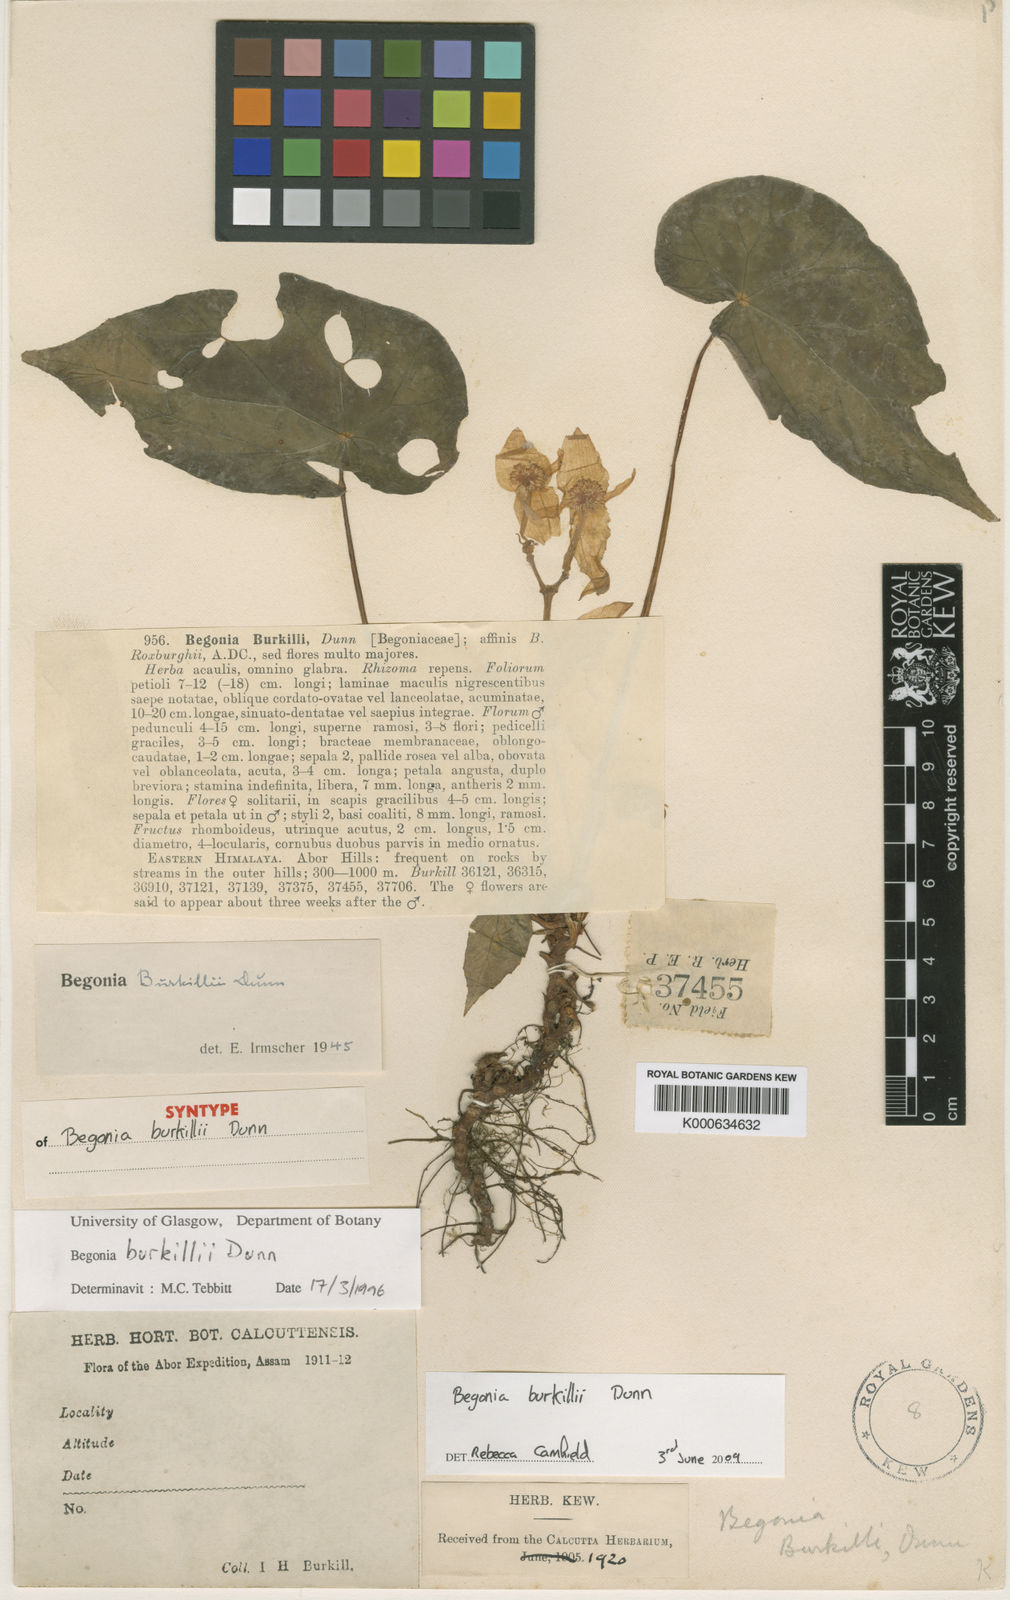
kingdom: Plantae
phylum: Tracheophyta
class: Magnoliopsida
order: Cucurbitales
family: Begoniaceae
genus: Begonia
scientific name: Begonia burkillii
